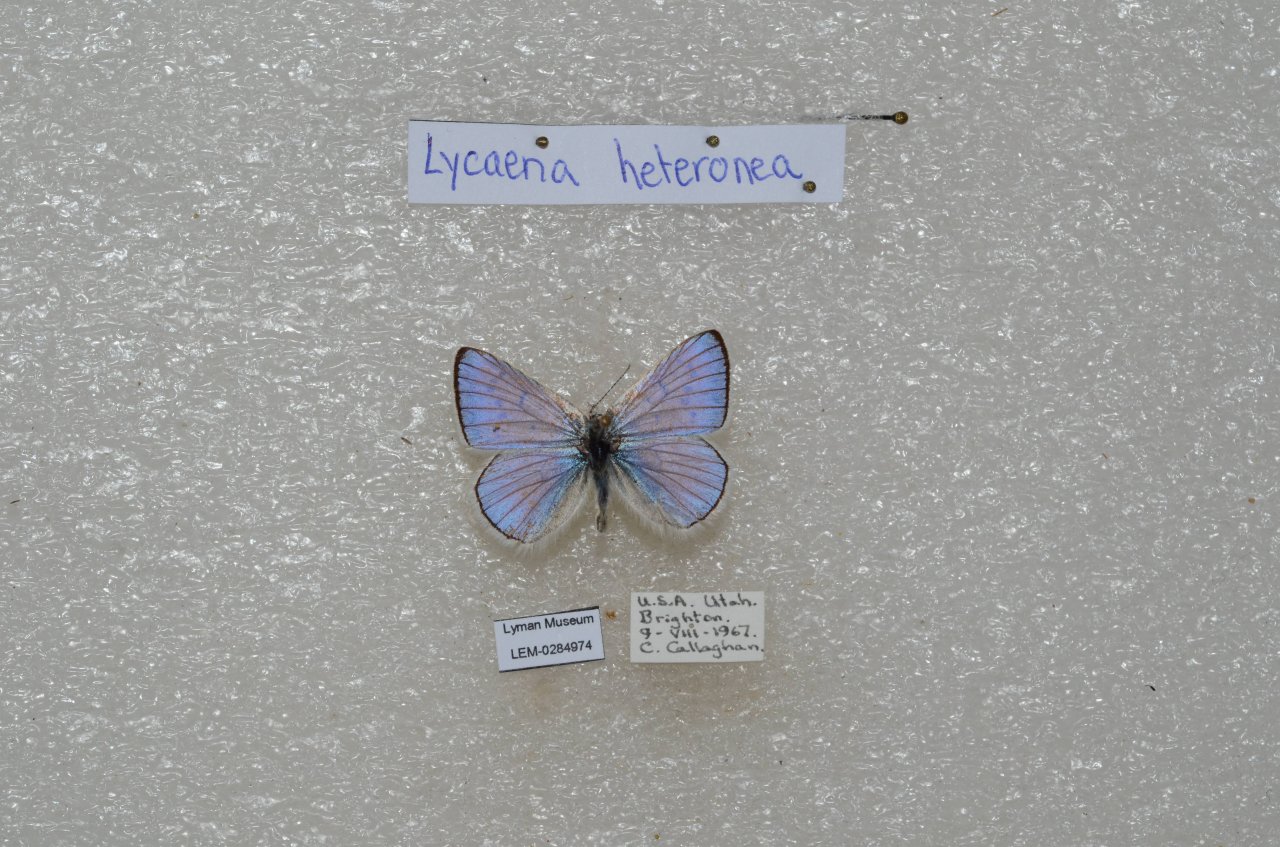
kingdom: Animalia
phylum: Arthropoda
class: Insecta
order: Lepidoptera
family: Lycaenidae
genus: Lycaena
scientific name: Lycaena heteronea
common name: Blue Copper
